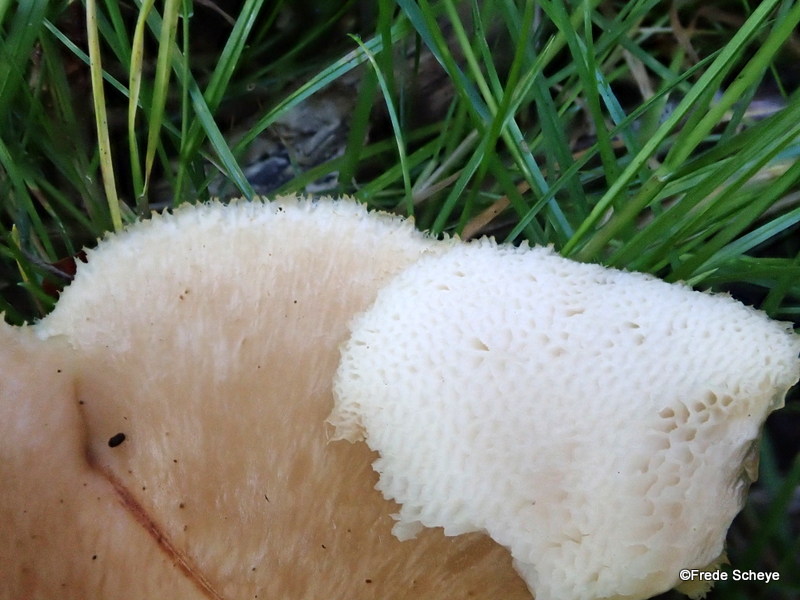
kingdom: Fungi
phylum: Basidiomycota
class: Agaricomycetes
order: Polyporales
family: Polyporaceae
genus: Polyporus
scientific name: Polyporus tuberaster
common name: knoldet stilkporesvamp
